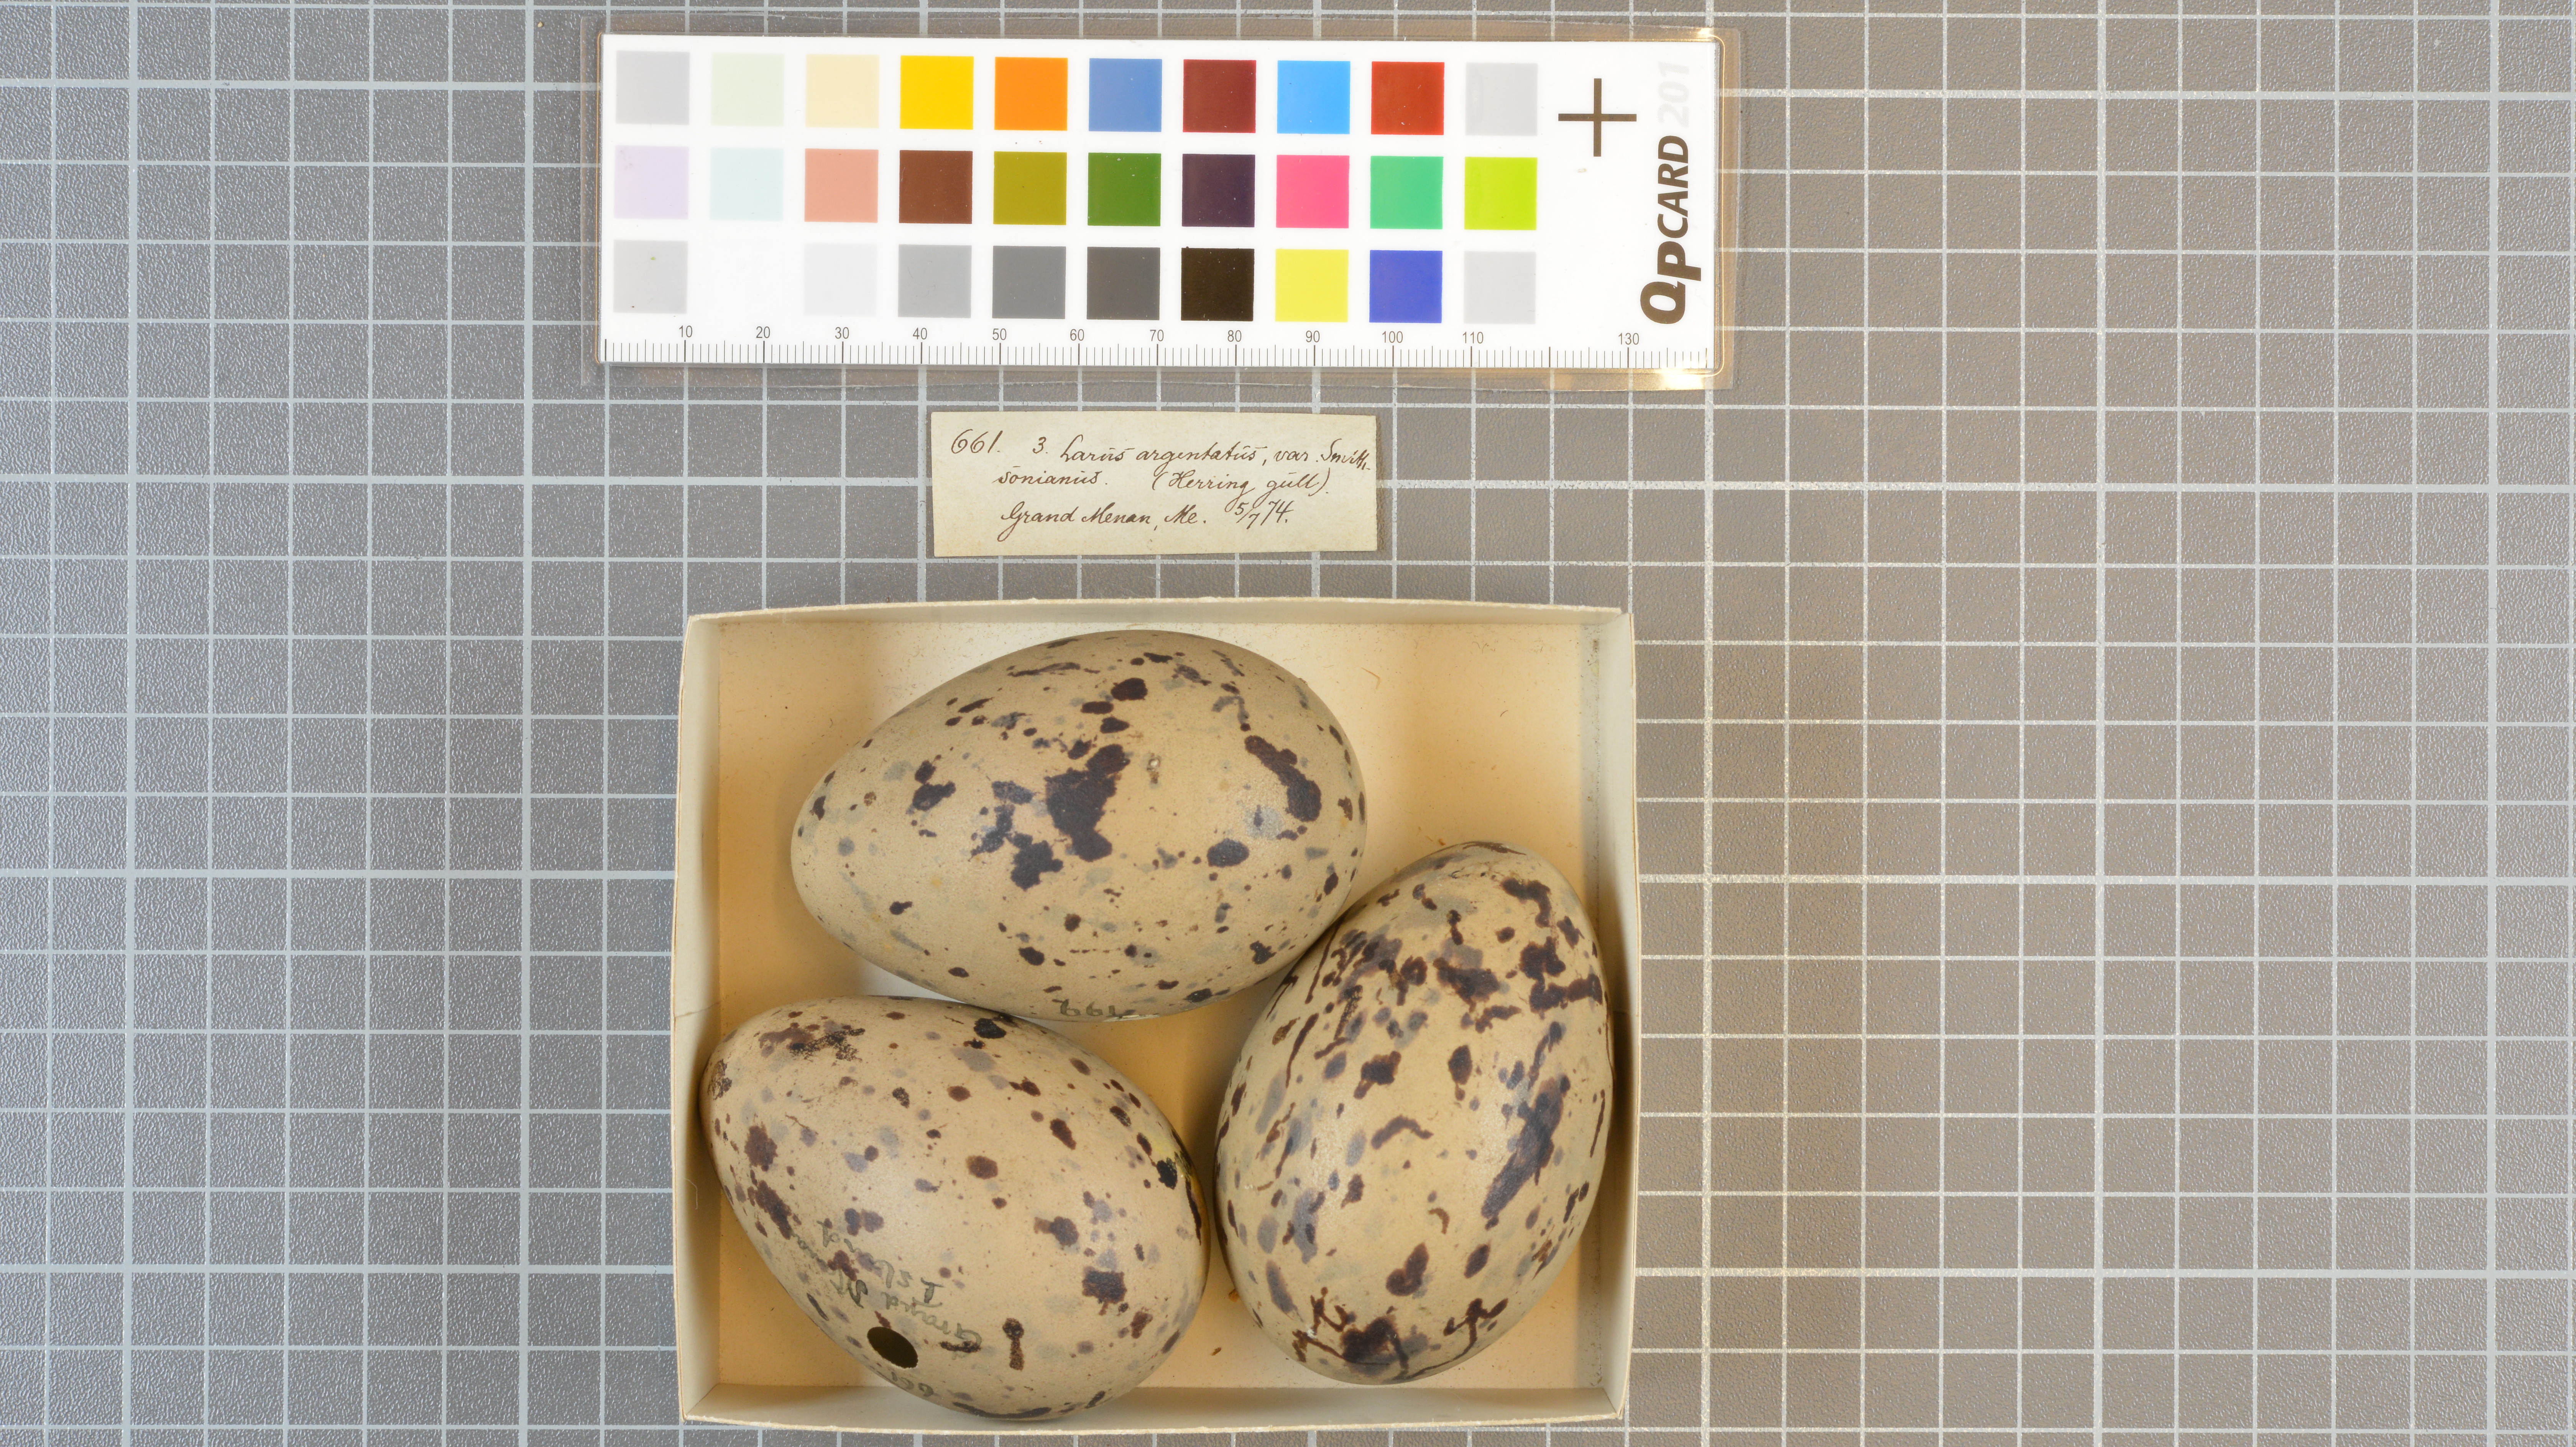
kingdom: Animalia
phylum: Chordata
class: Aves
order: Charadriiformes
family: Laridae
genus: Larus
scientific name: Larus smithsonianus
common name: American herring gull
